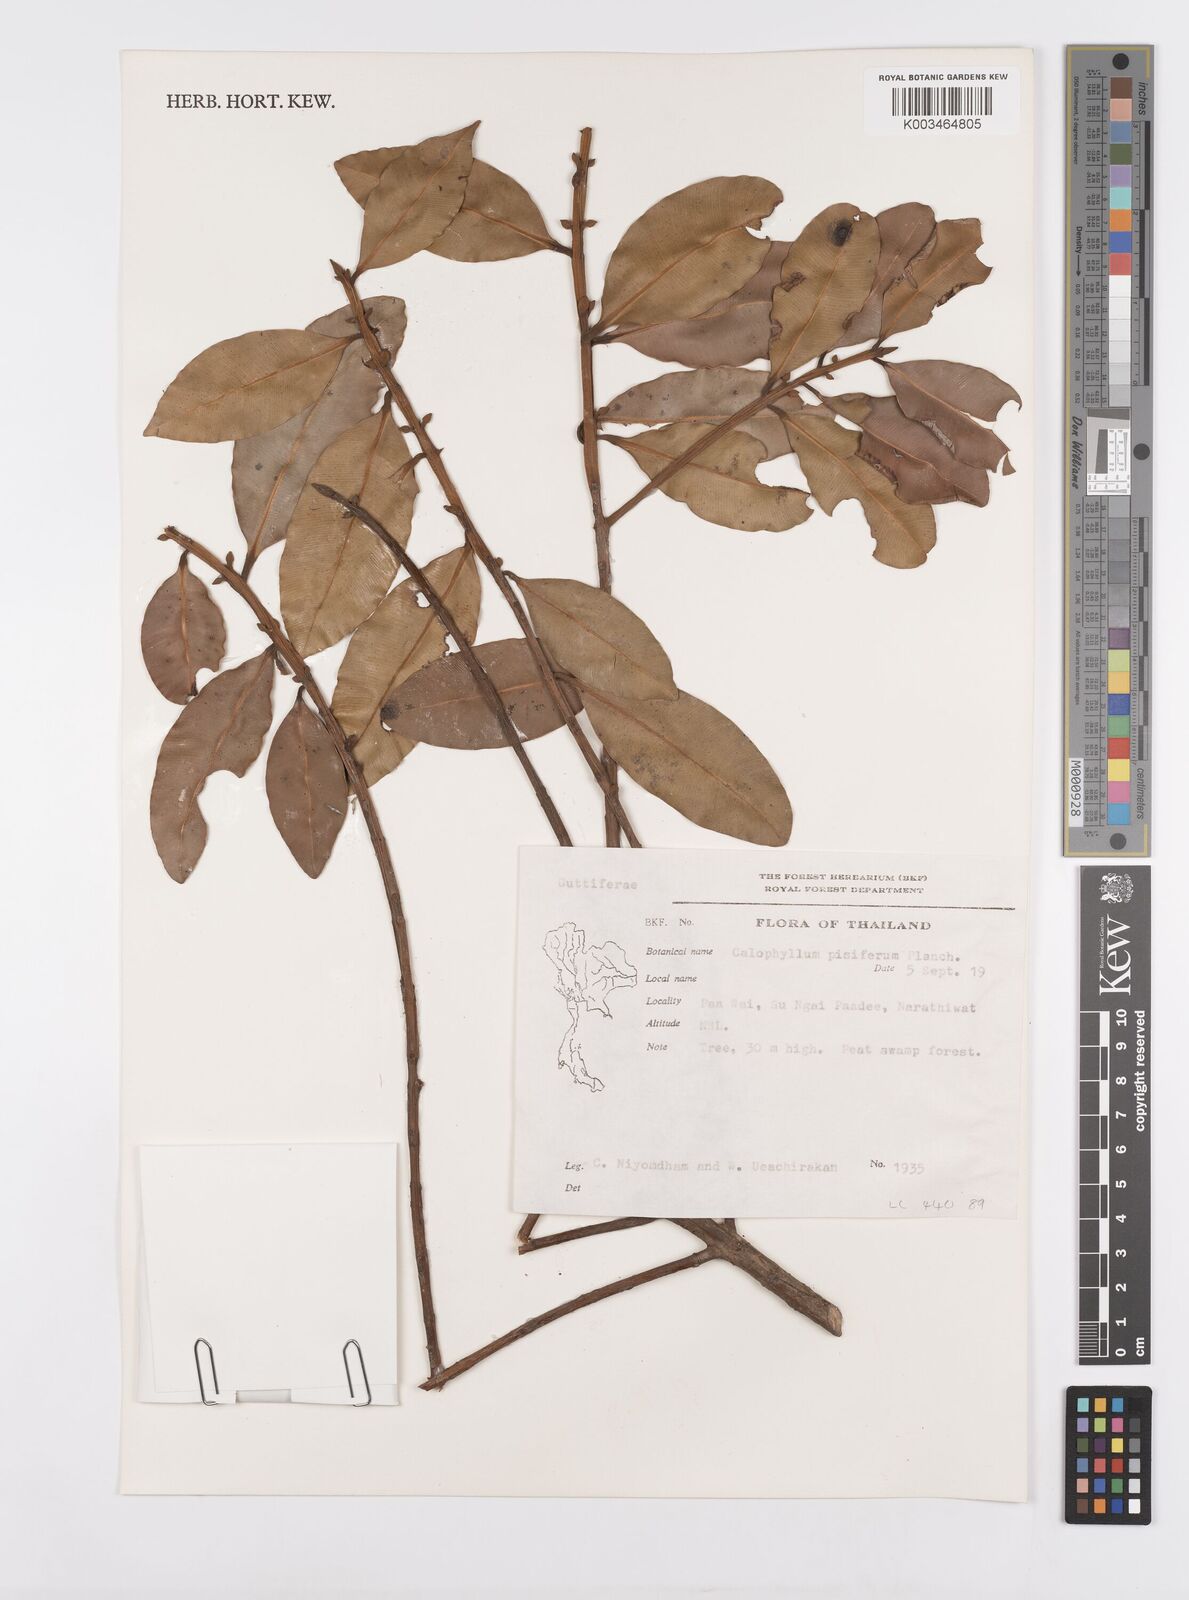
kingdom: Plantae
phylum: Tracheophyta
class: Magnoliopsida
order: Malpighiales
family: Calophyllaceae
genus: Calophyllum
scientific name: Calophyllum pisiferum
